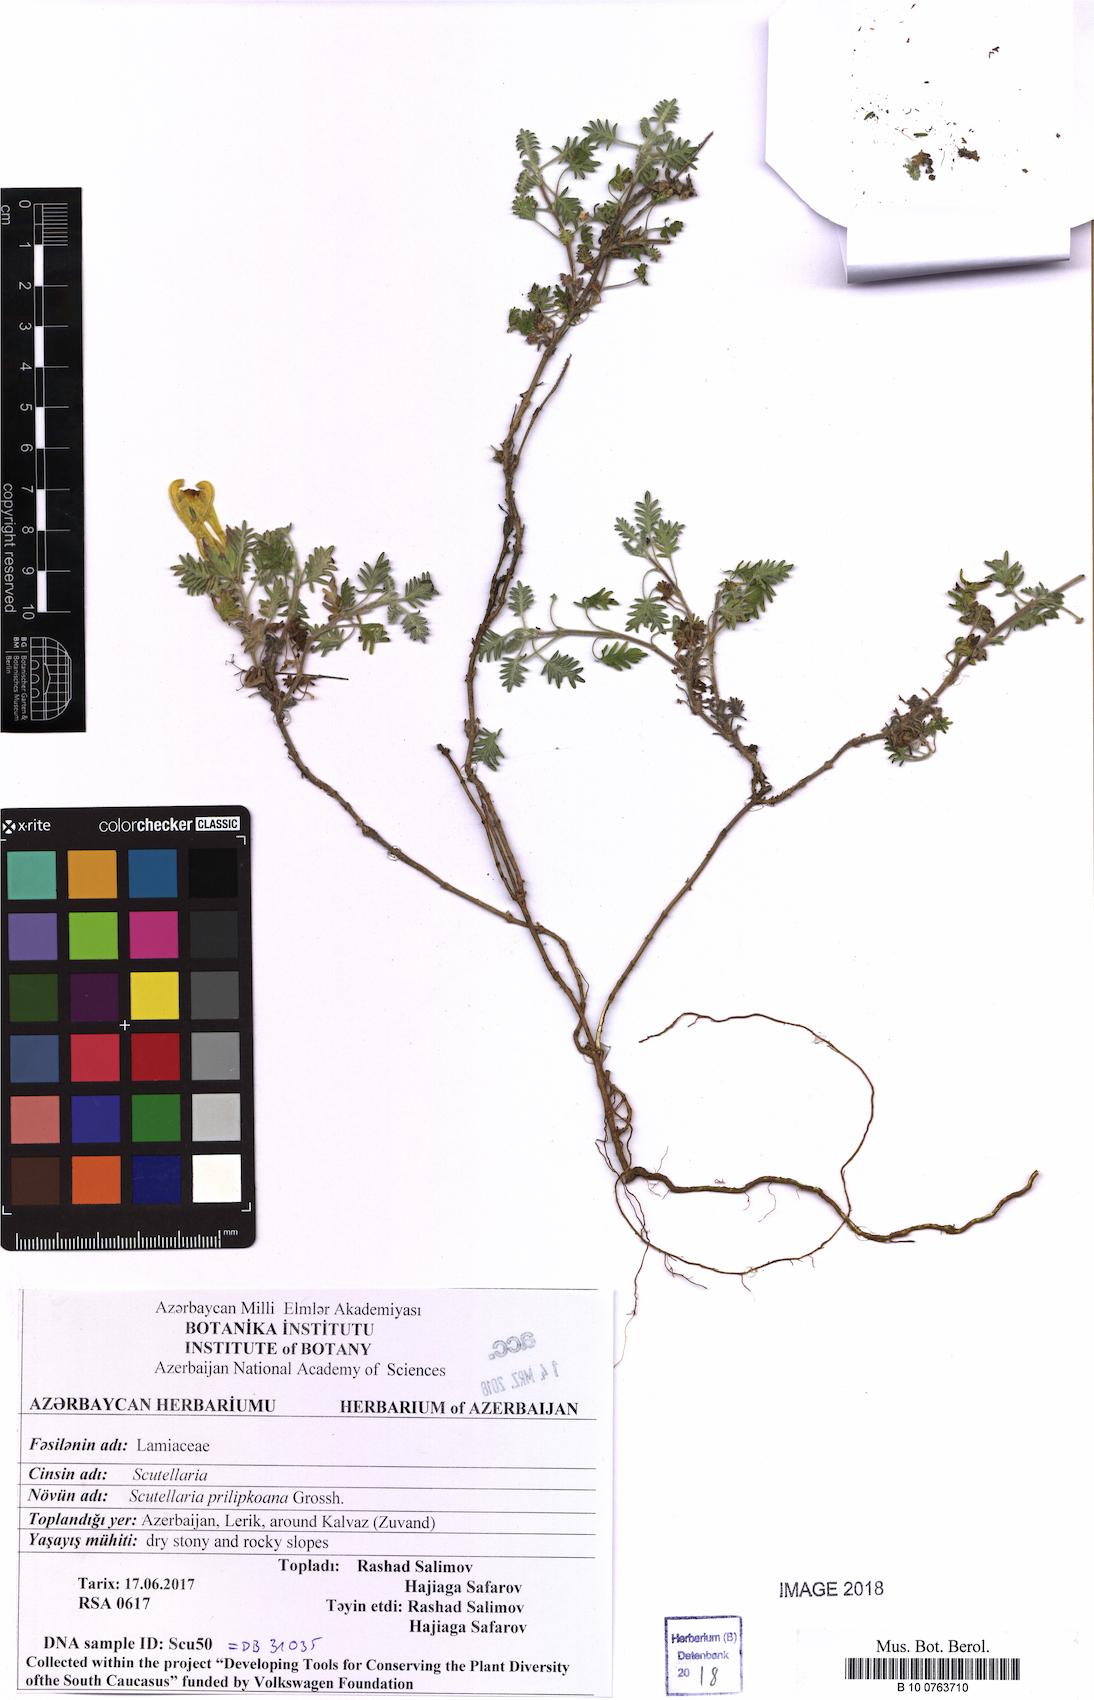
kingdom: Plantae
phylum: Tracheophyta
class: Magnoliopsida
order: Lamiales
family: Lamiaceae
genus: Scutellaria
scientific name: Scutellaria prilipkoana
